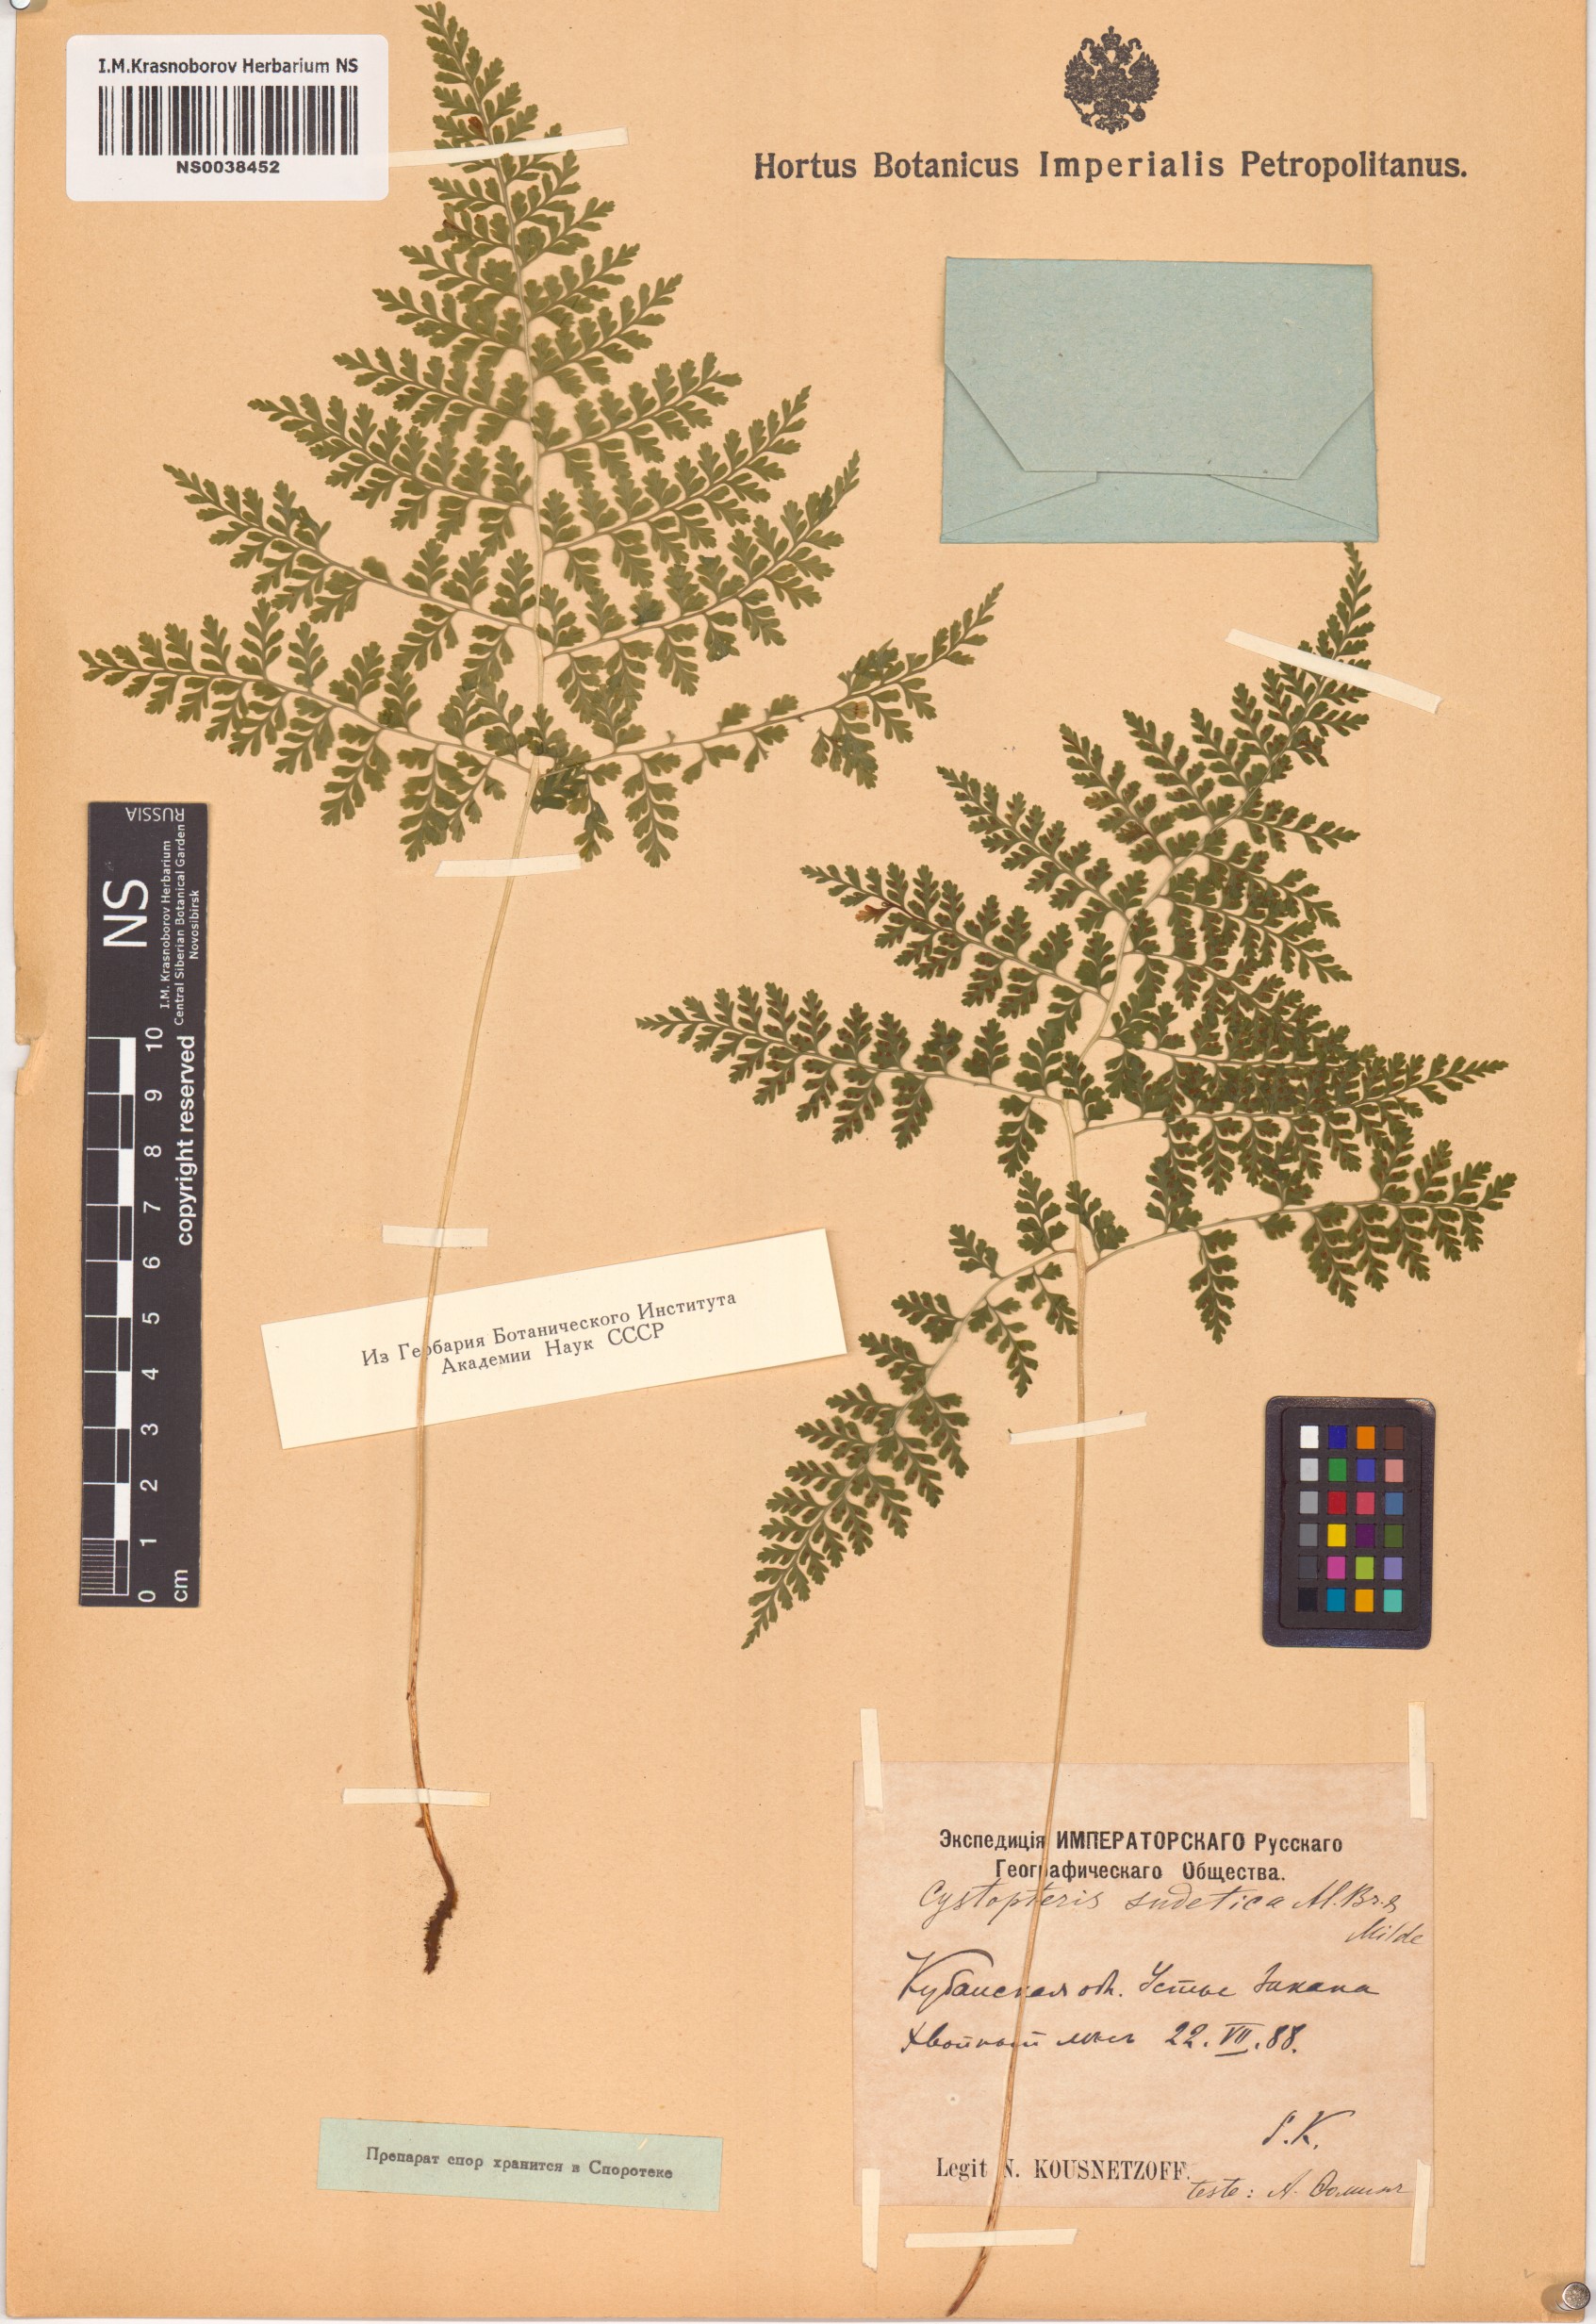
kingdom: Plantae
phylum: Tracheophyta
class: Polypodiopsida
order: Polypodiales
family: Cystopteridaceae
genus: Cystopteris
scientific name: Cystopteris sudetica
